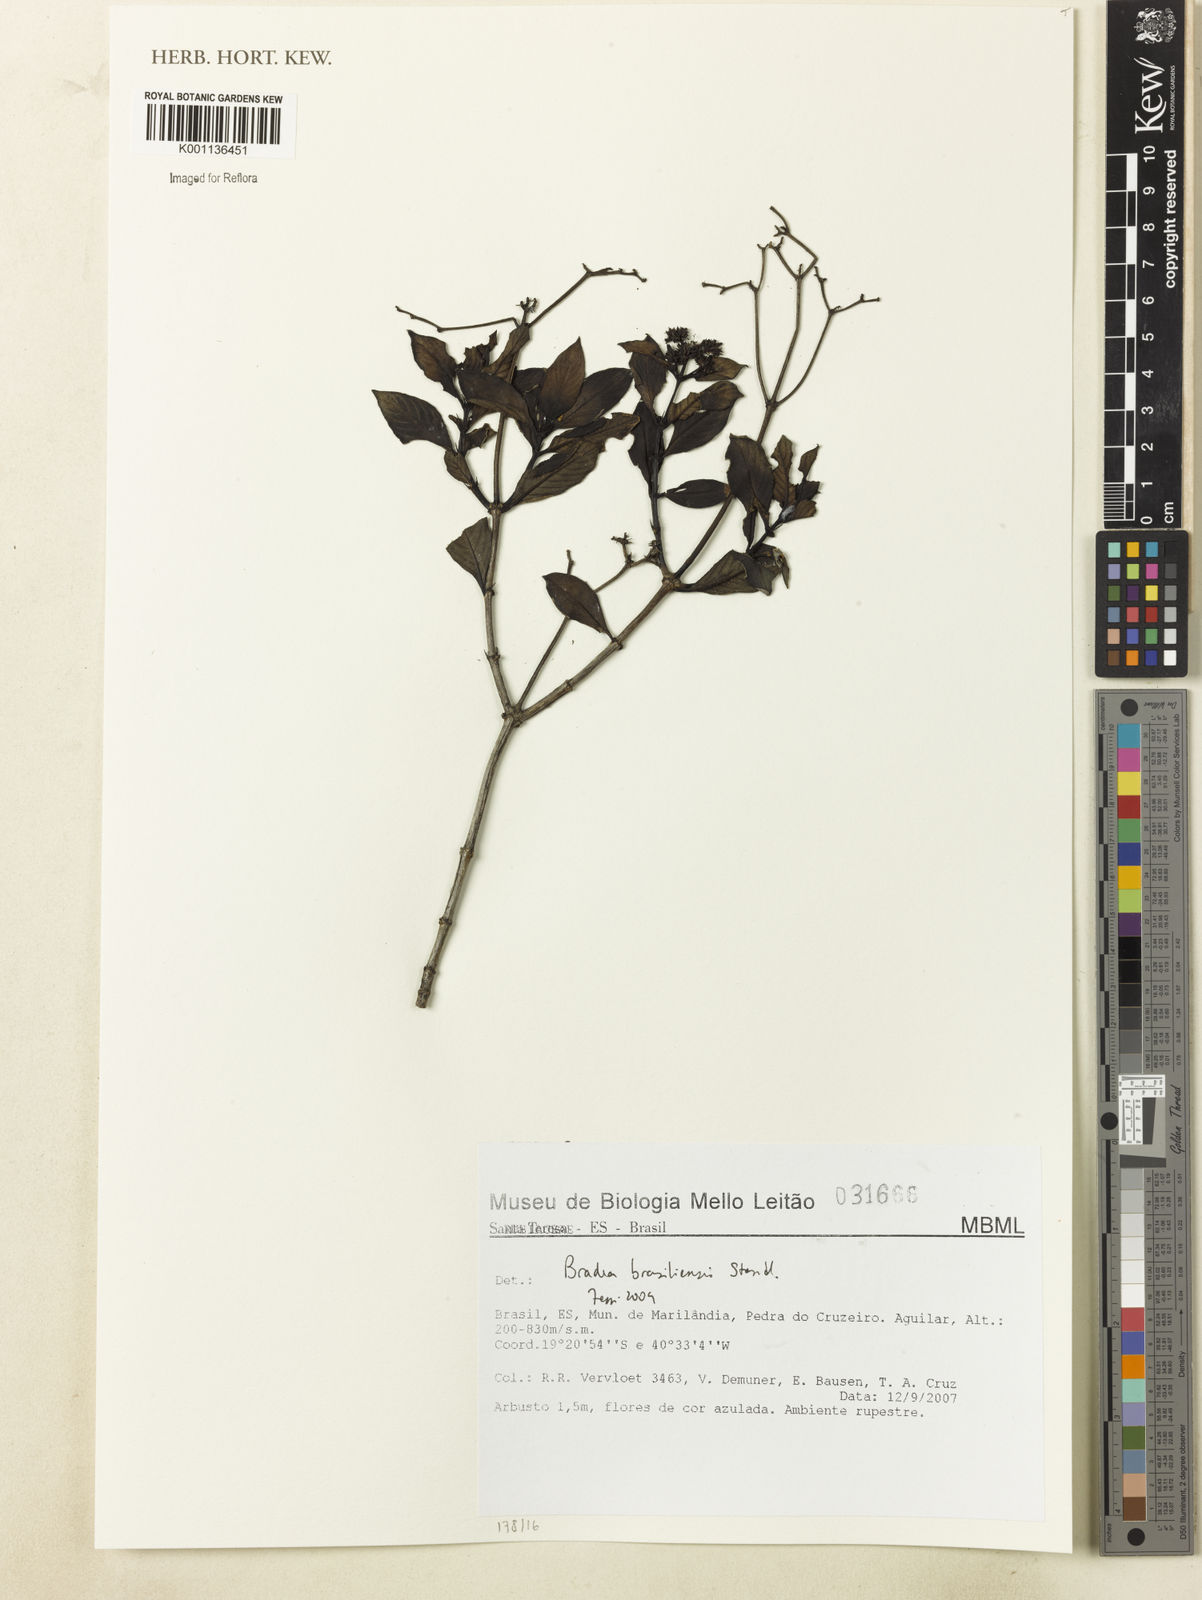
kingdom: Plantae
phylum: Tracheophyta
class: Magnoliopsida
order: Gentianales
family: Rubiaceae
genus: Bradea
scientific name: Bradea brasiliensis
